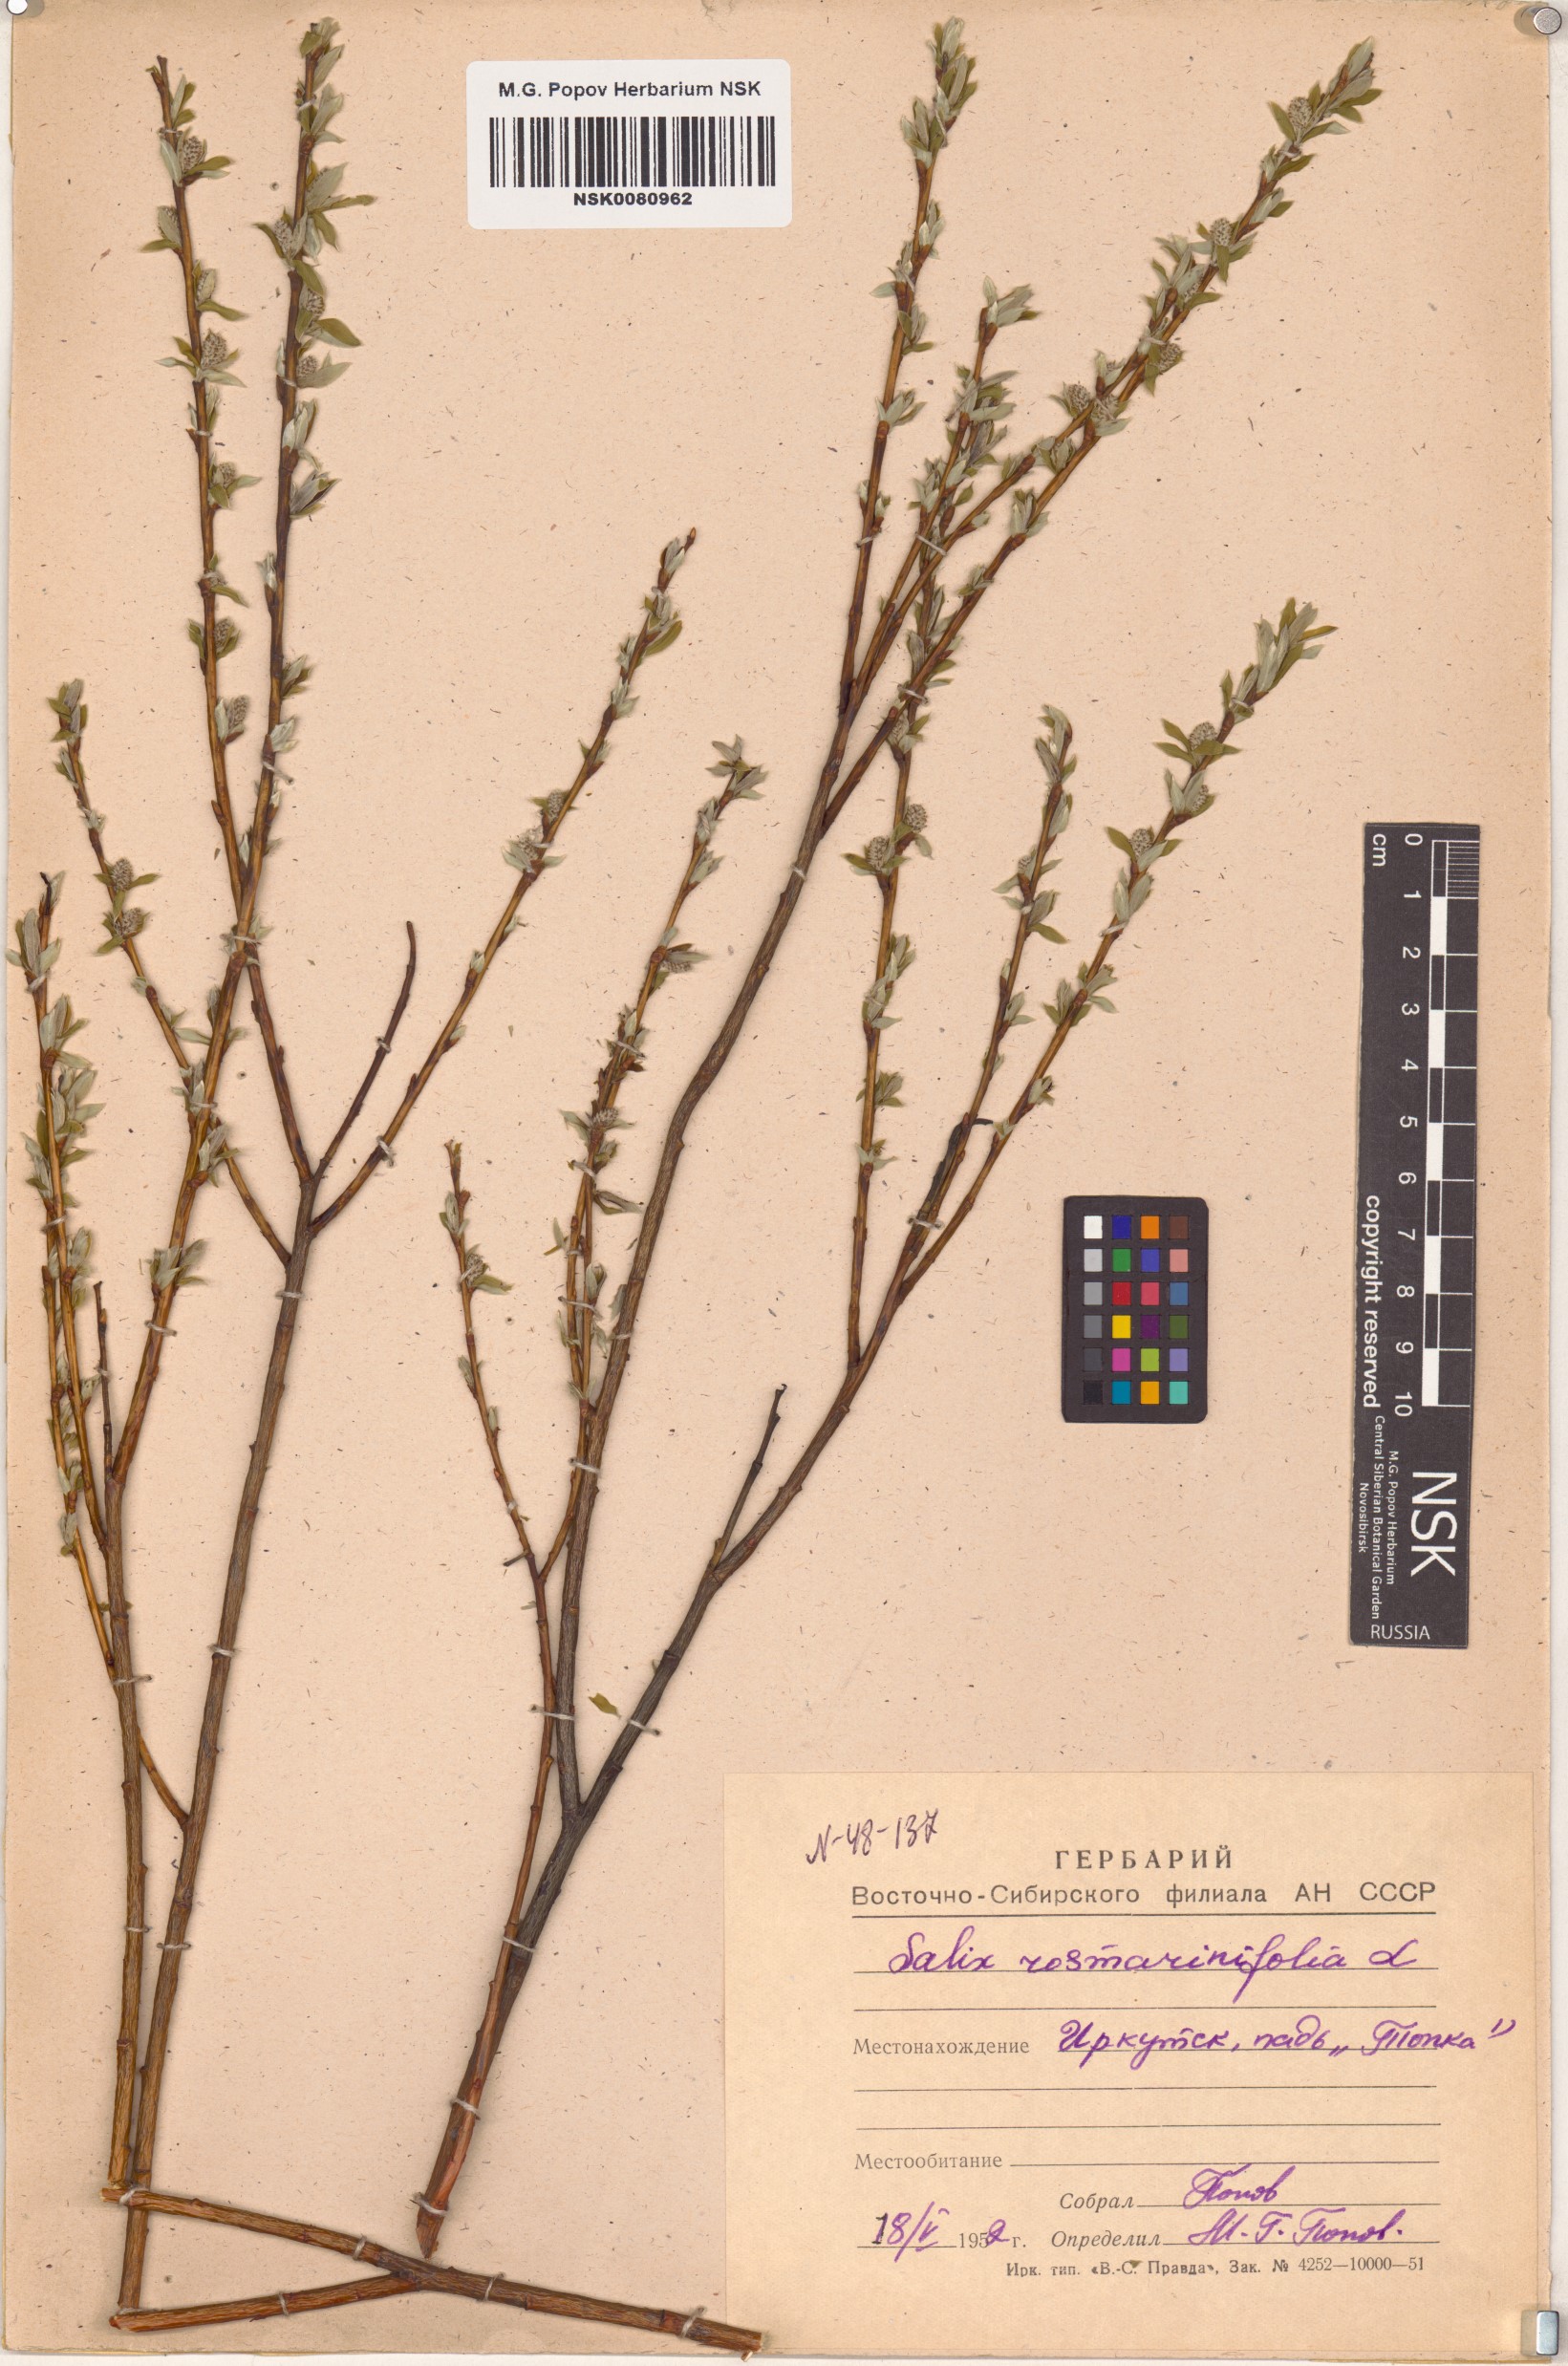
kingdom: Plantae
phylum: Tracheophyta
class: Magnoliopsida
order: Malpighiales
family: Salicaceae
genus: Salix
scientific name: Salix rosmarinifolia
